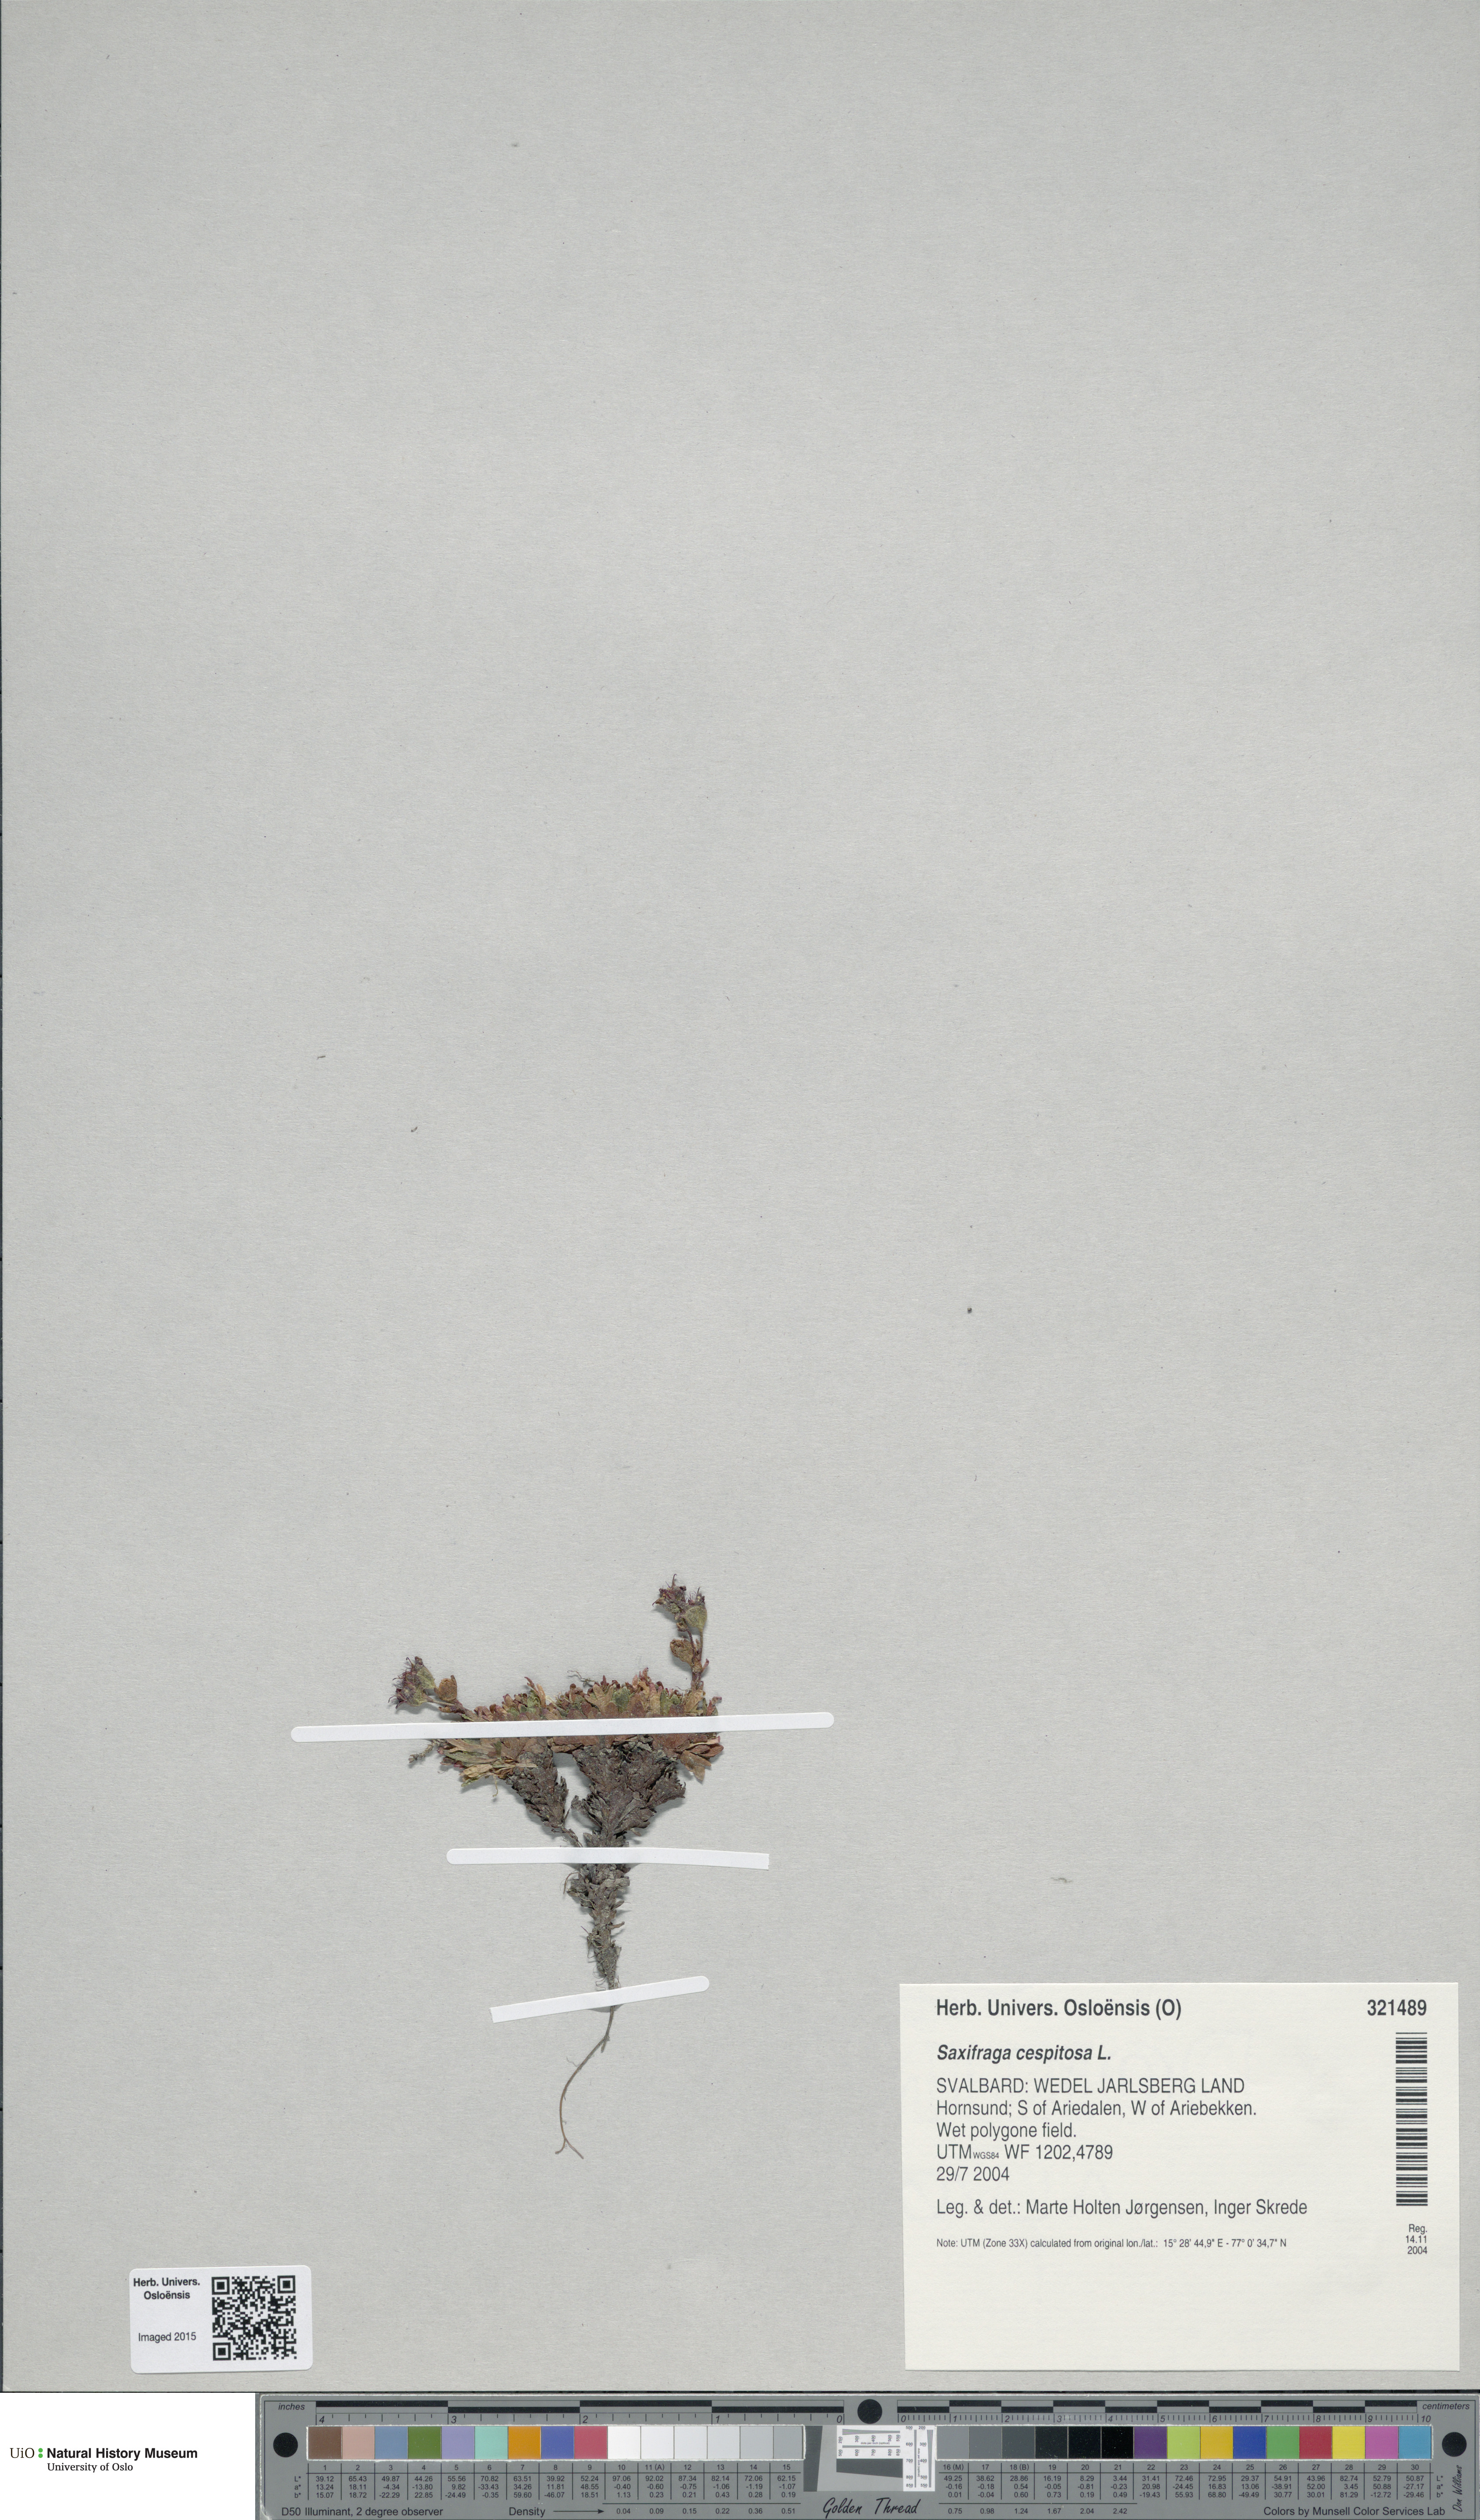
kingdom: Plantae
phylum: Tracheophyta
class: Magnoliopsida
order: Saxifragales
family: Saxifragaceae
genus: Saxifraga
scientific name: Saxifraga cespitosa
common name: Tufted saxifrage
